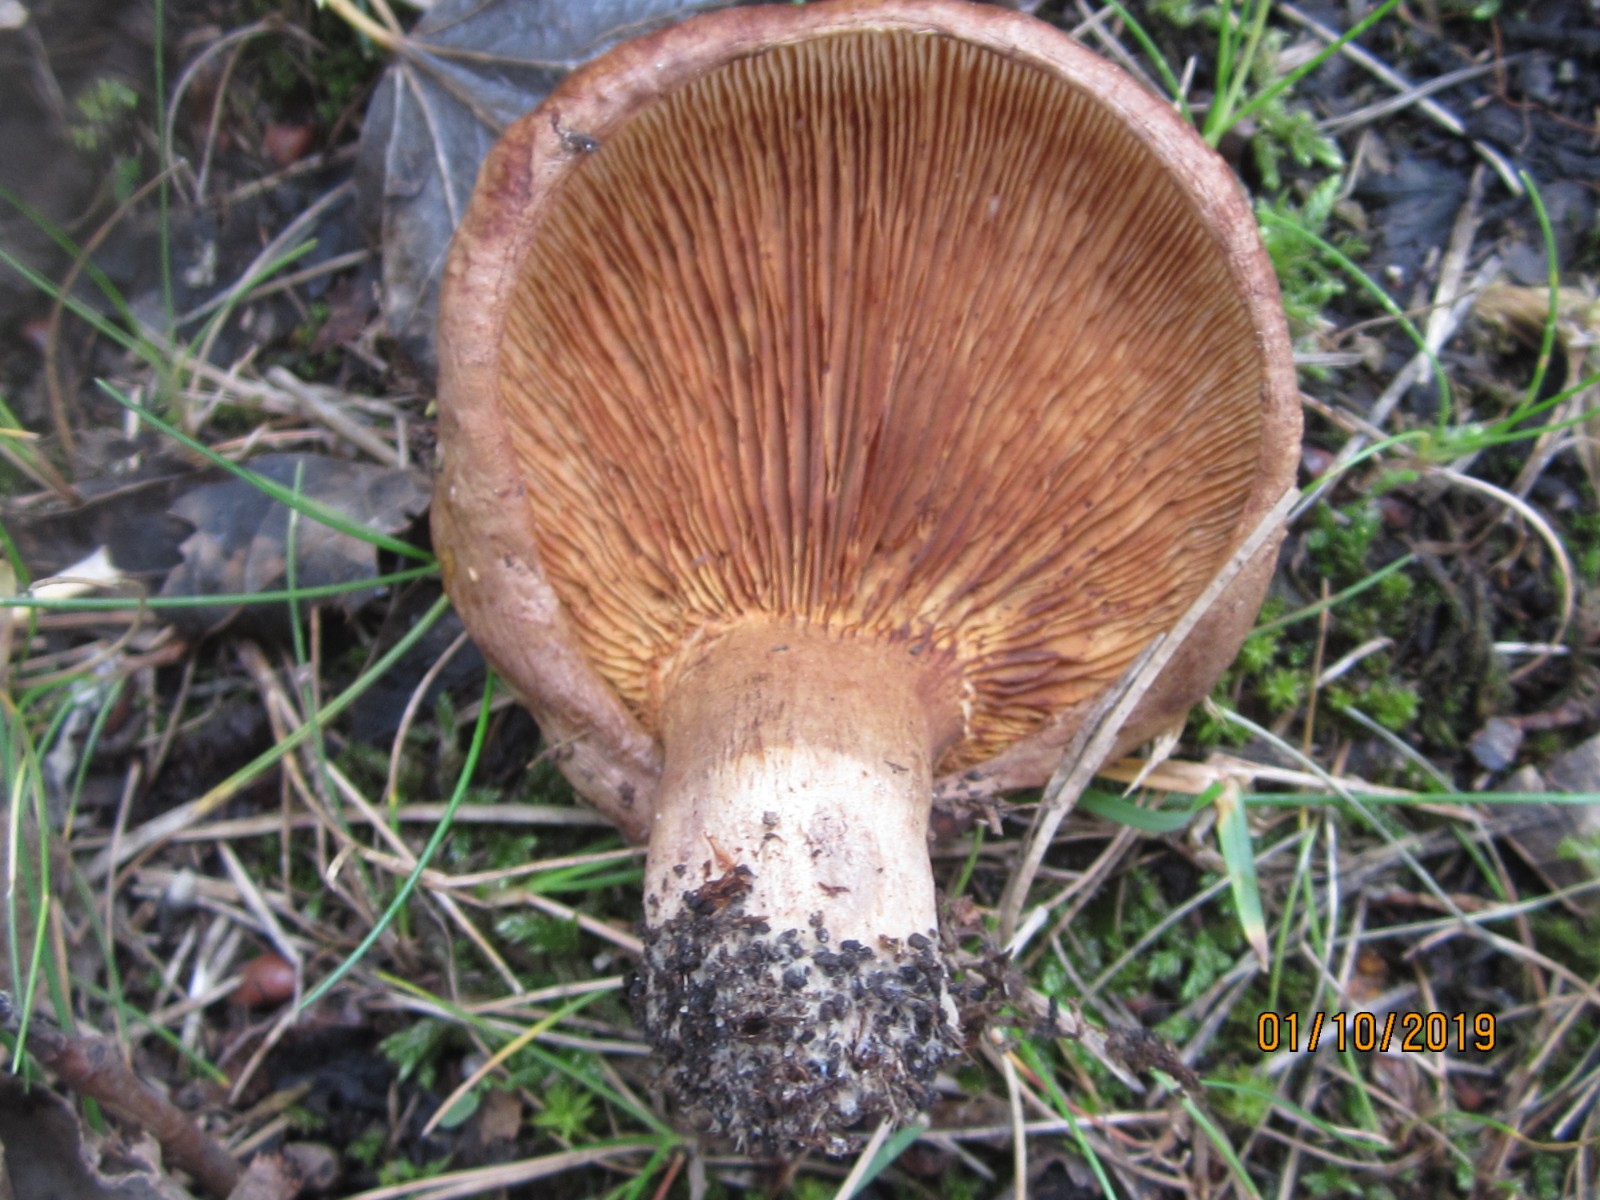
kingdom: Fungi
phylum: Basidiomycota
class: Agaricomycetes
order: Boletales
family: Paxillaceae
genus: Paxillus
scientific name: Paxillus ammoniavirescens
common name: olivensporet netbladhat
